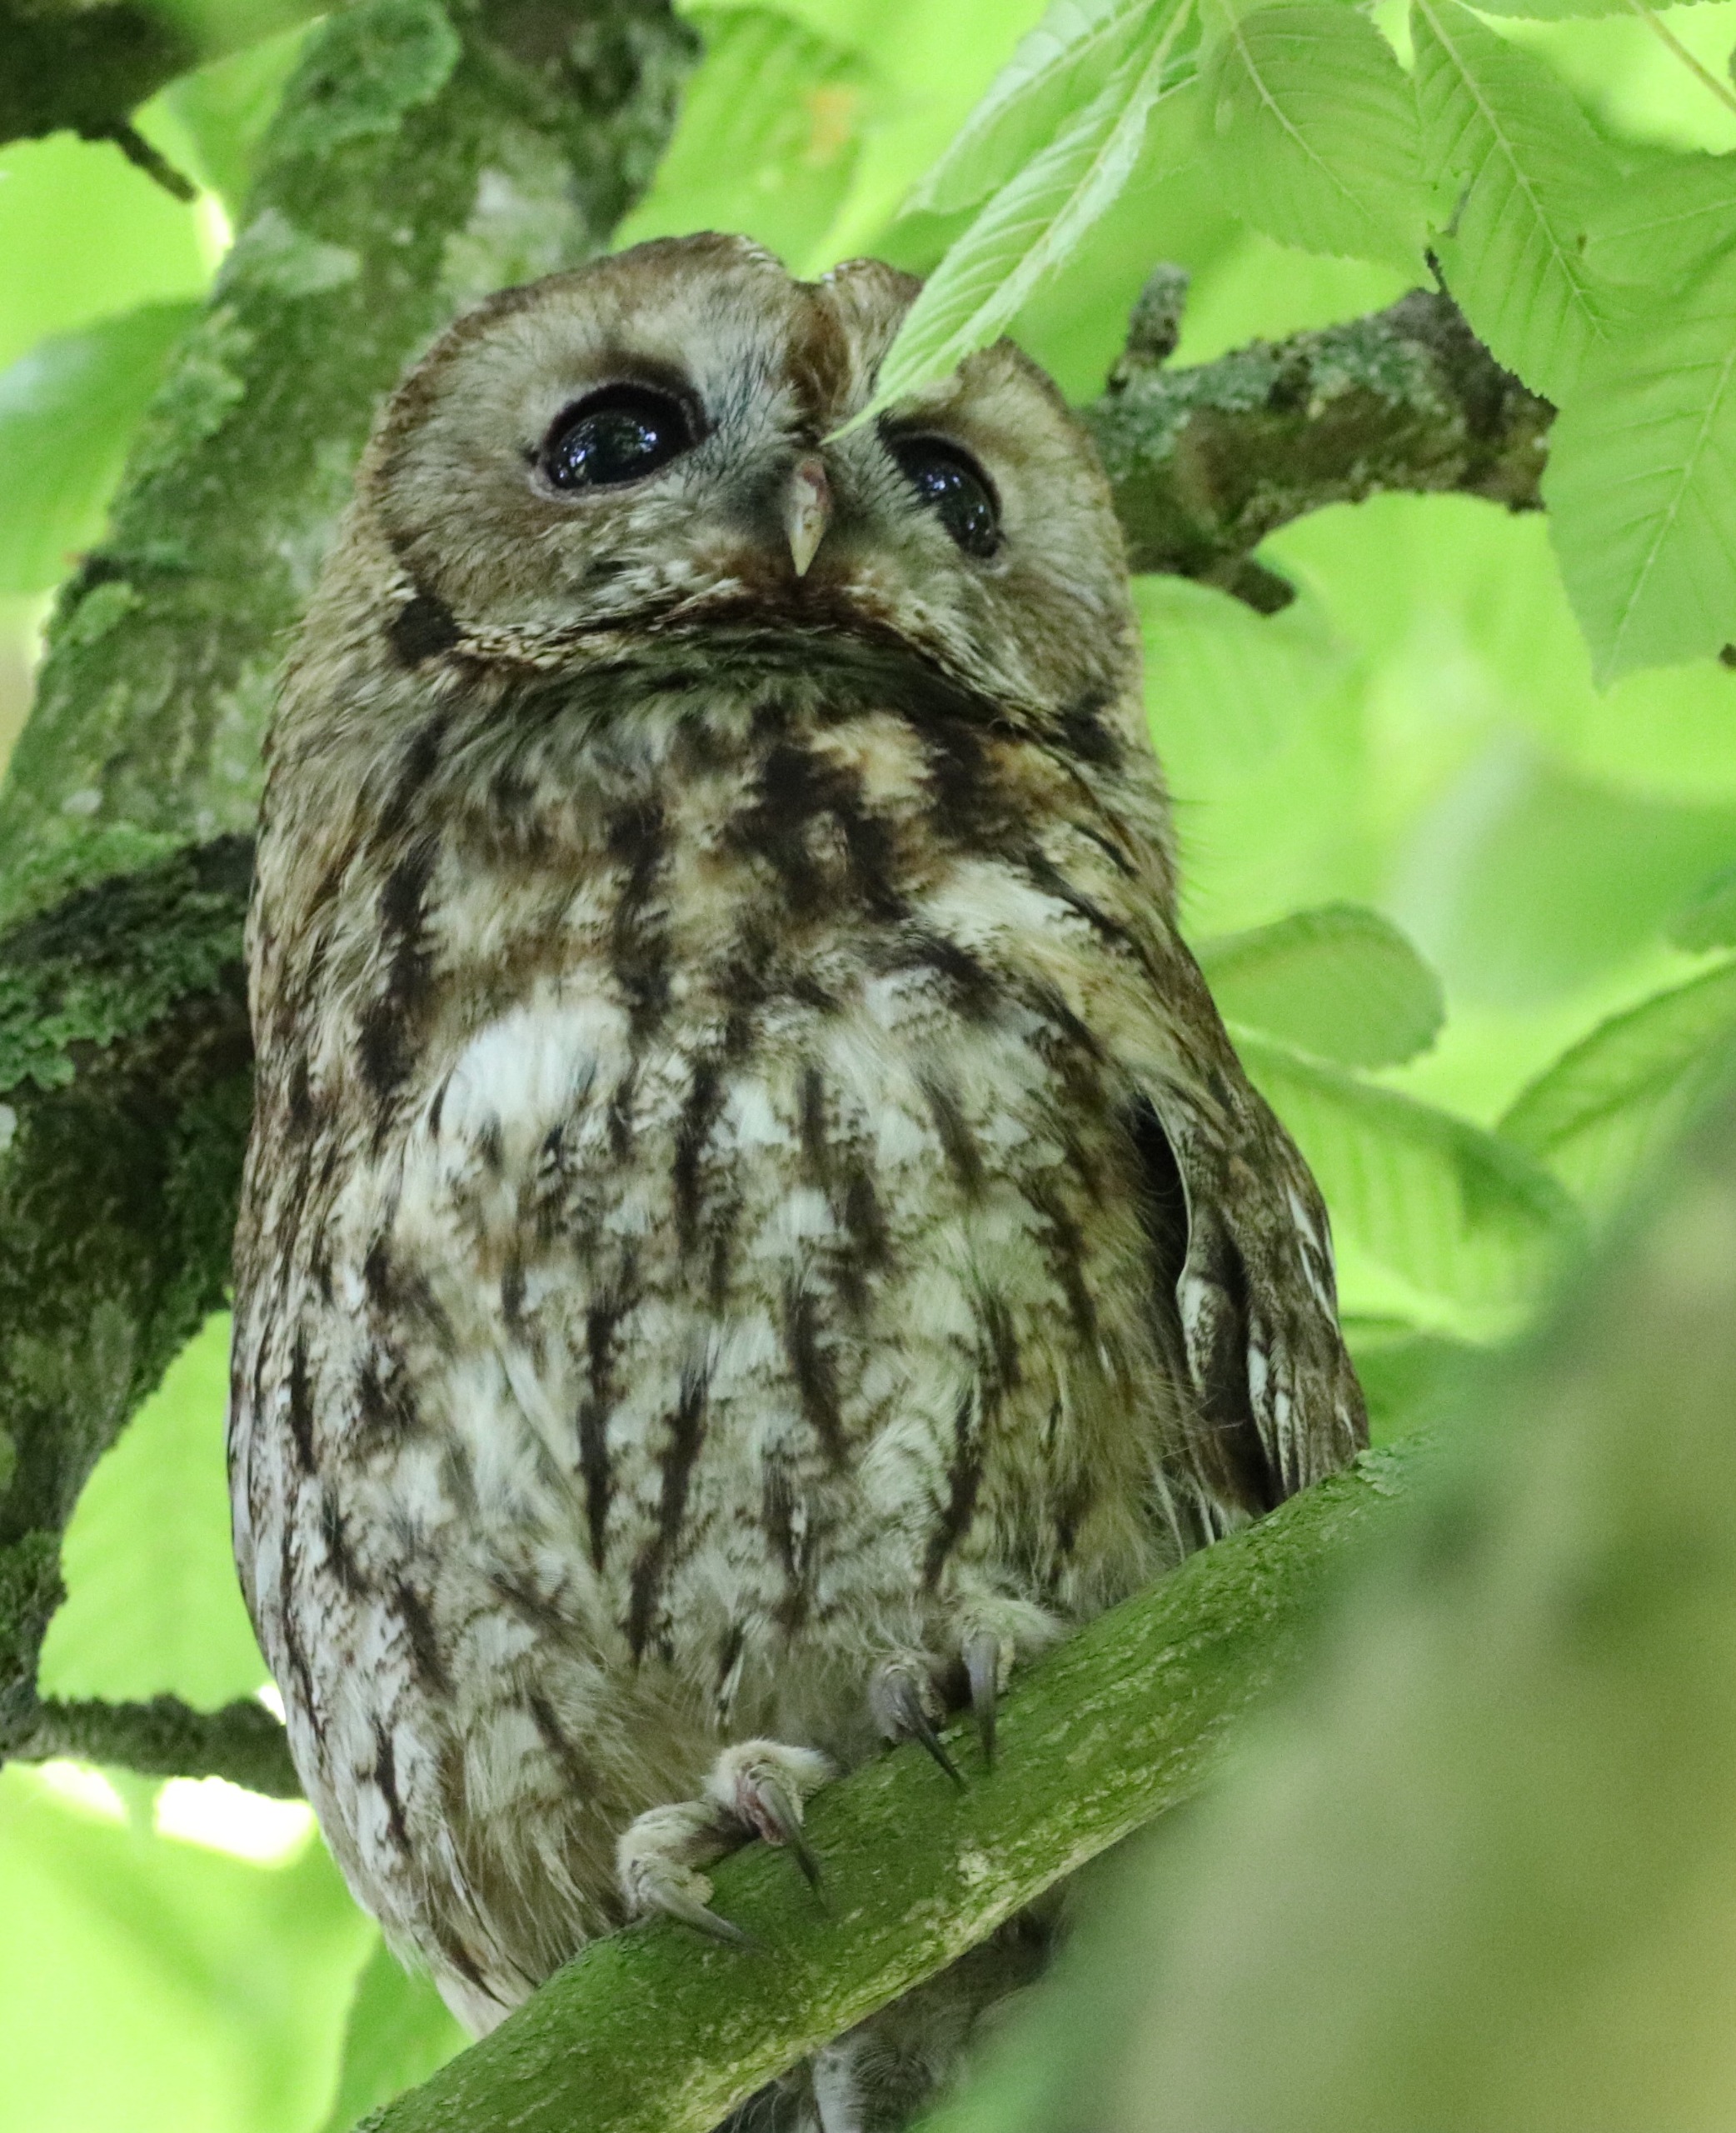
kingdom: Animalia
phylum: Chordata
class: Aves
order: Strigiformes
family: Strigidae
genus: Strix
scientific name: Strix aluco
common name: Natugle
